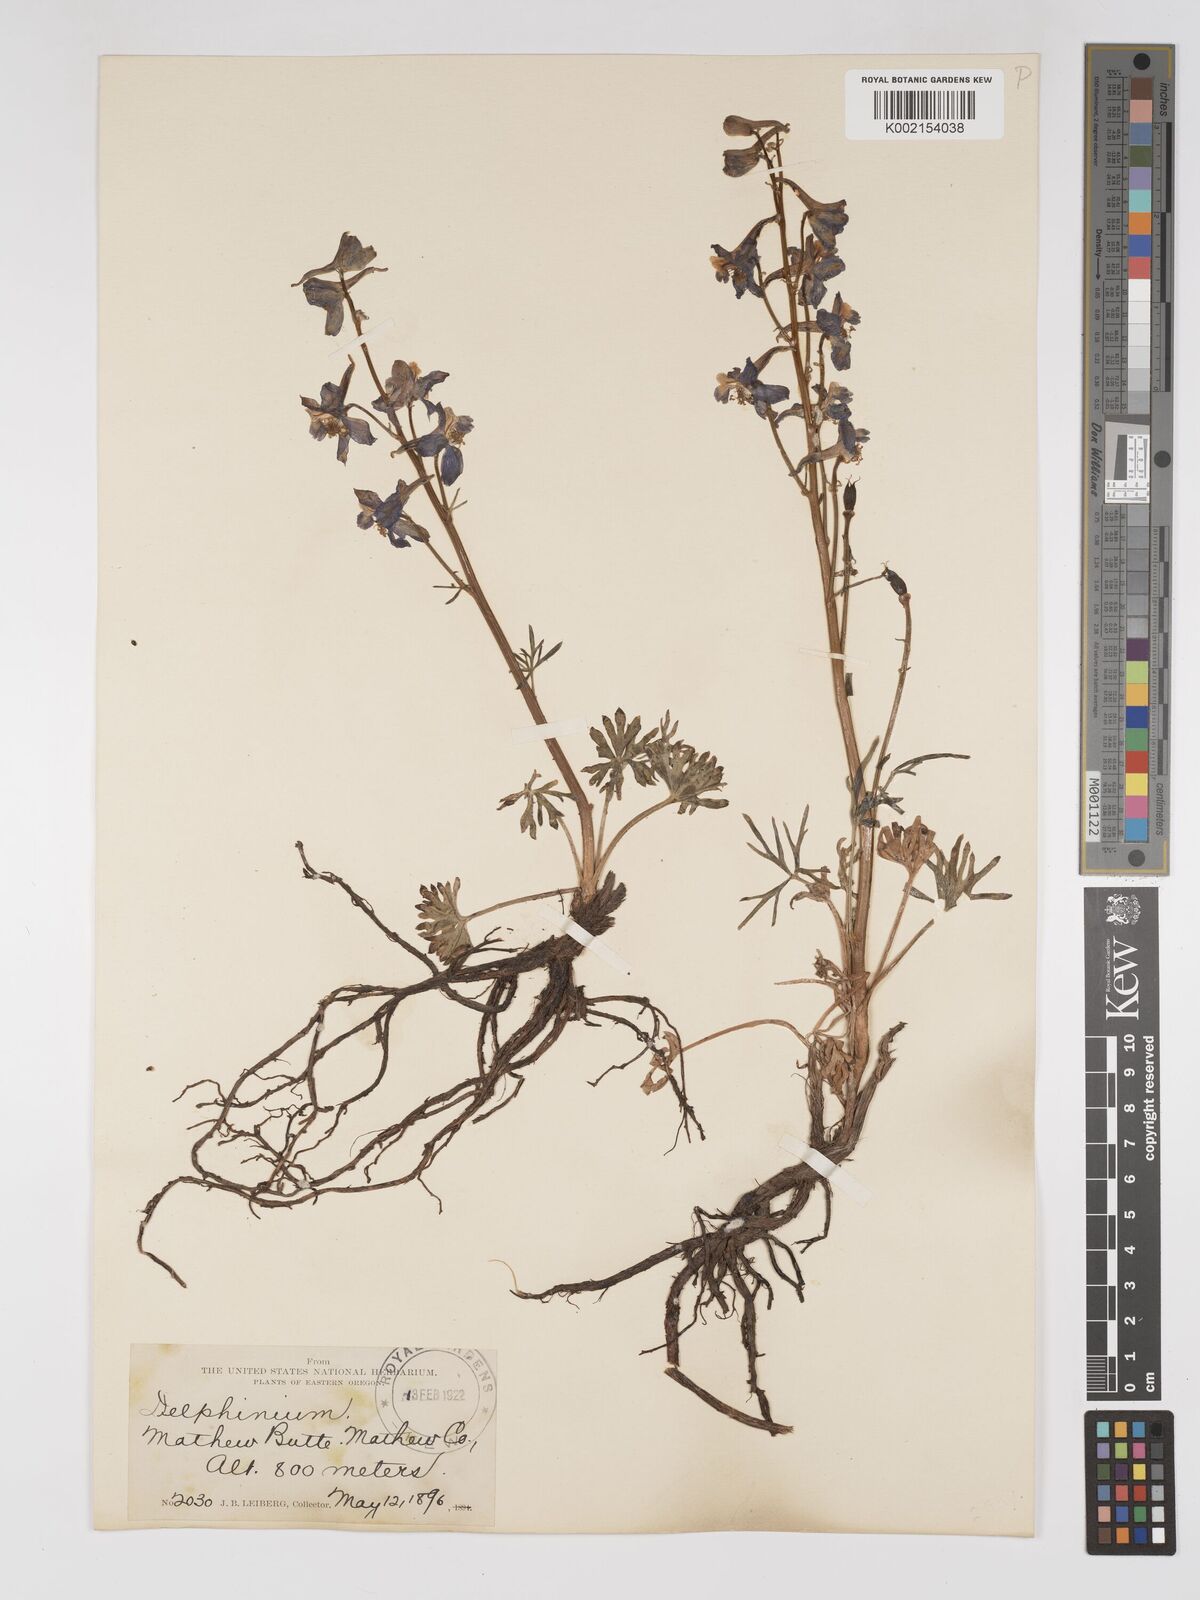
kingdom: Plantae
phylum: Tracheophyta
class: Magnoliopsida
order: Ranunculales
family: Ranunculaceae
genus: Delphinium
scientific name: Delphinium
